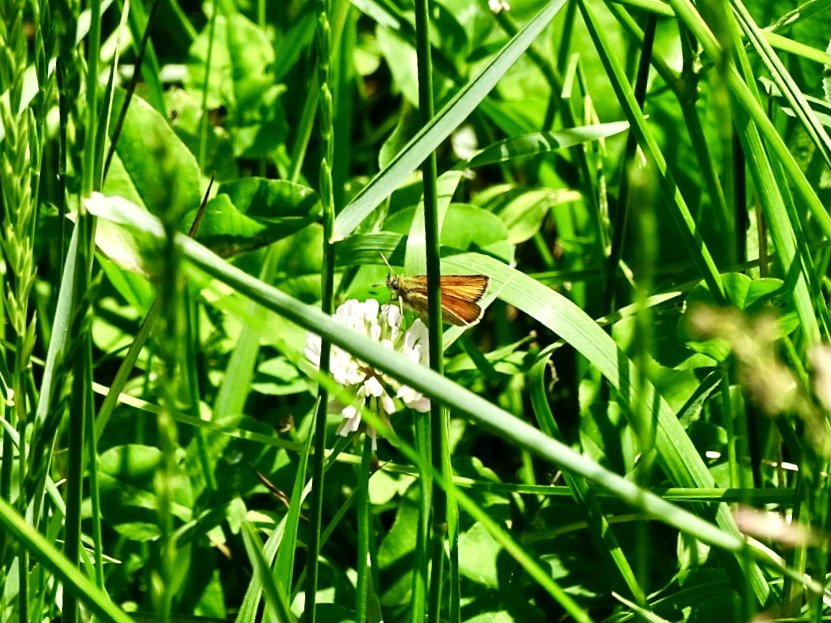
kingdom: Animalia
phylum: Arthropoda
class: Insecta
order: Lepidoptera
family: Hesperiidae
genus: Thymelicus
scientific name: Thymelicus lineola
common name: European Skipper
